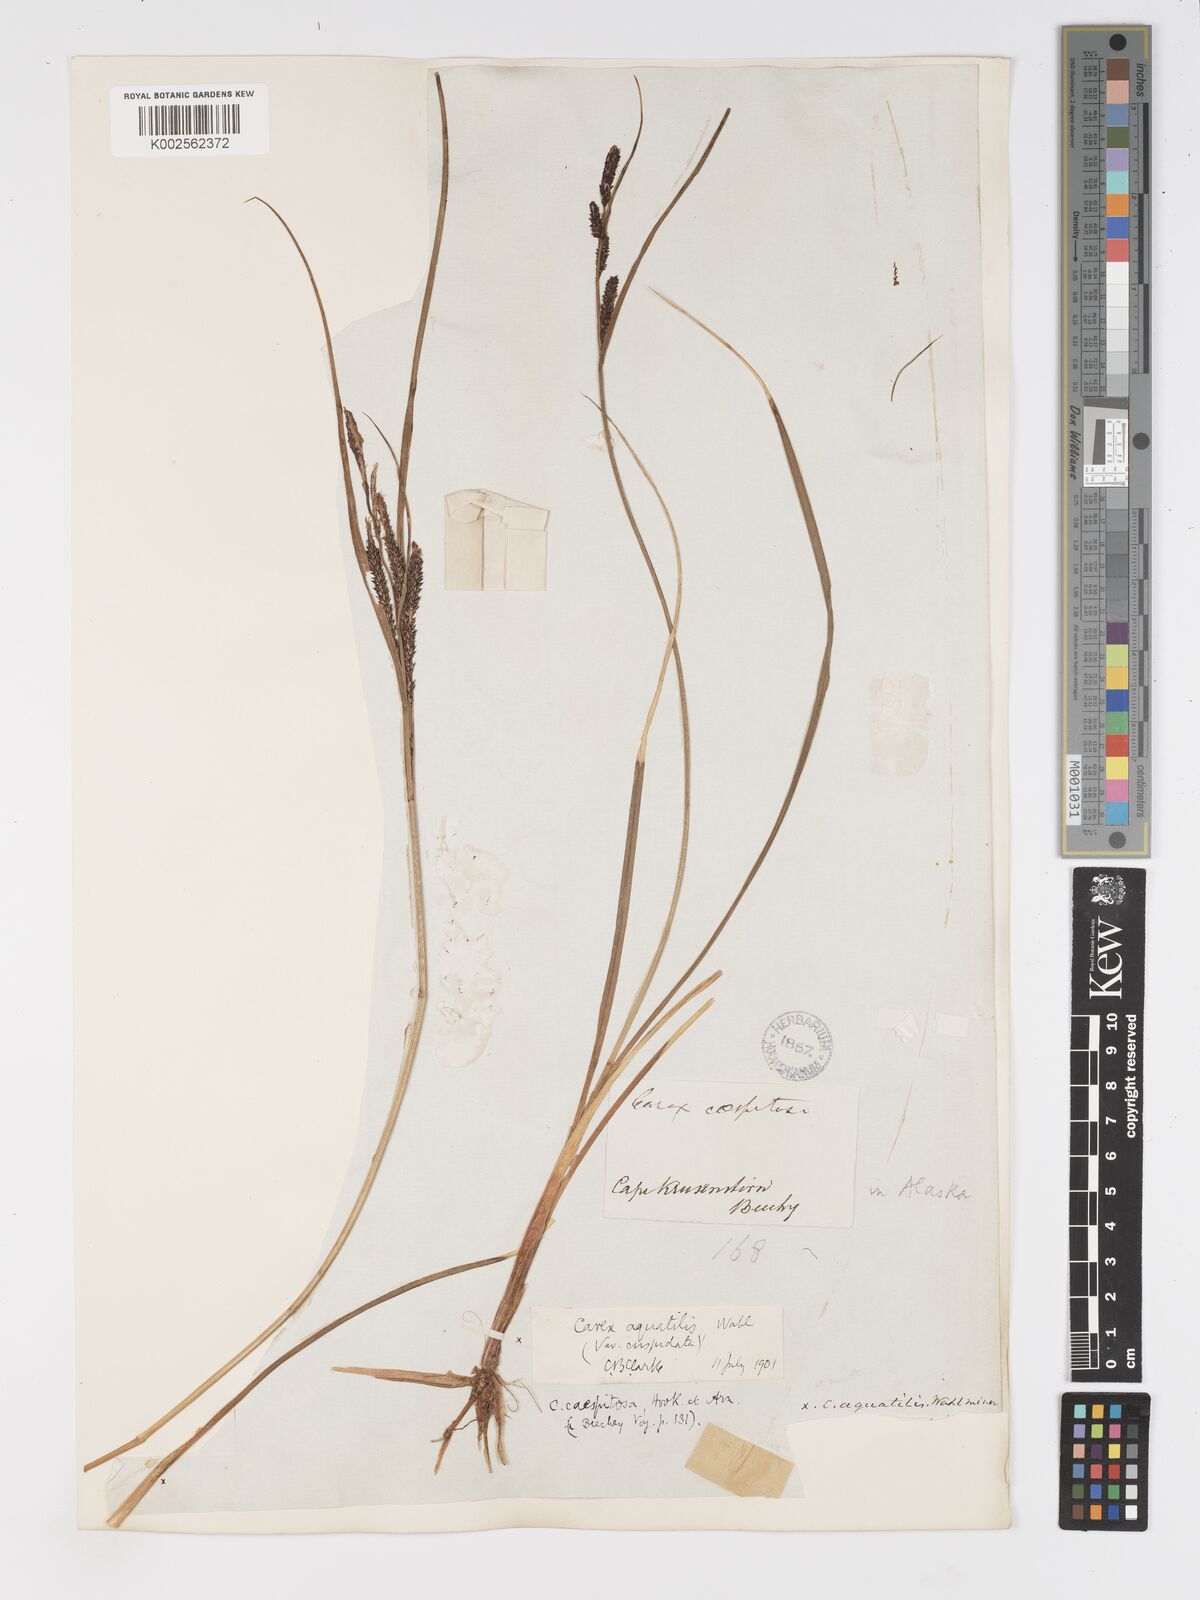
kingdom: Plantae
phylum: Tracheophyta
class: Liliopsida
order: Poales
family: Cyperaceae
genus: Carex
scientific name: Carex aquatilis
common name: Water sedge
